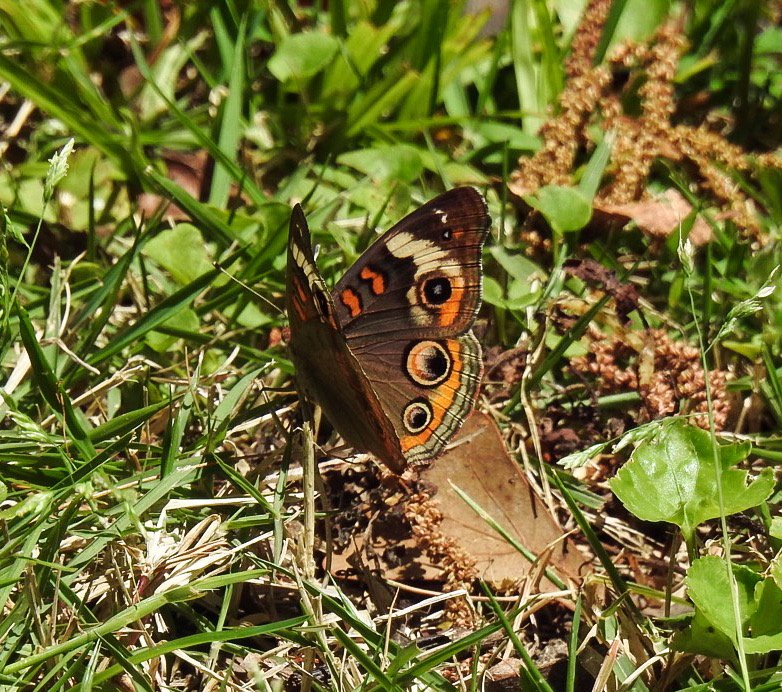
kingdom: Animalia
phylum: Arthropoda
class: Insecta
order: Lepidoptera
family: Nymphalidae
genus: Junonia
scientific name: Junonia coenia
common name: Common Buckeye
